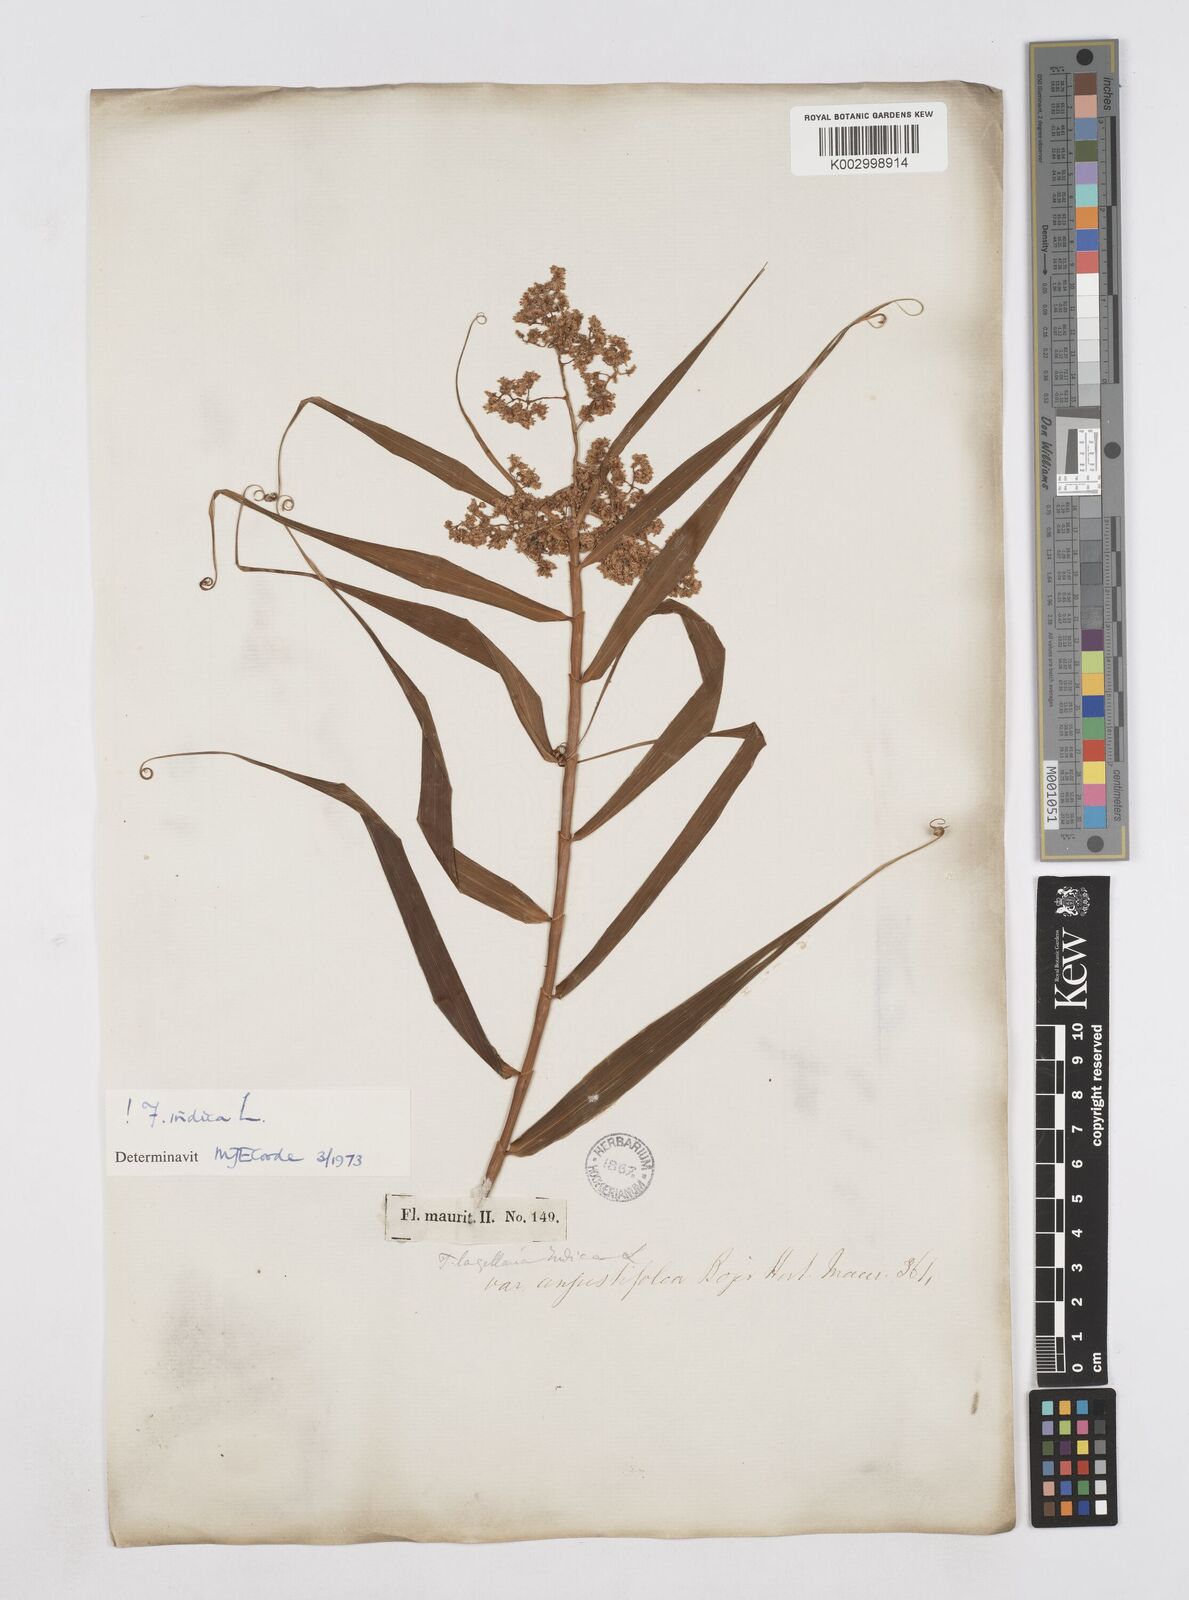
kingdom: Plantae
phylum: Tracheophyta
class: Liliopsida
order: Poales
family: Flagellariaceae
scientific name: Flagellariaceae
